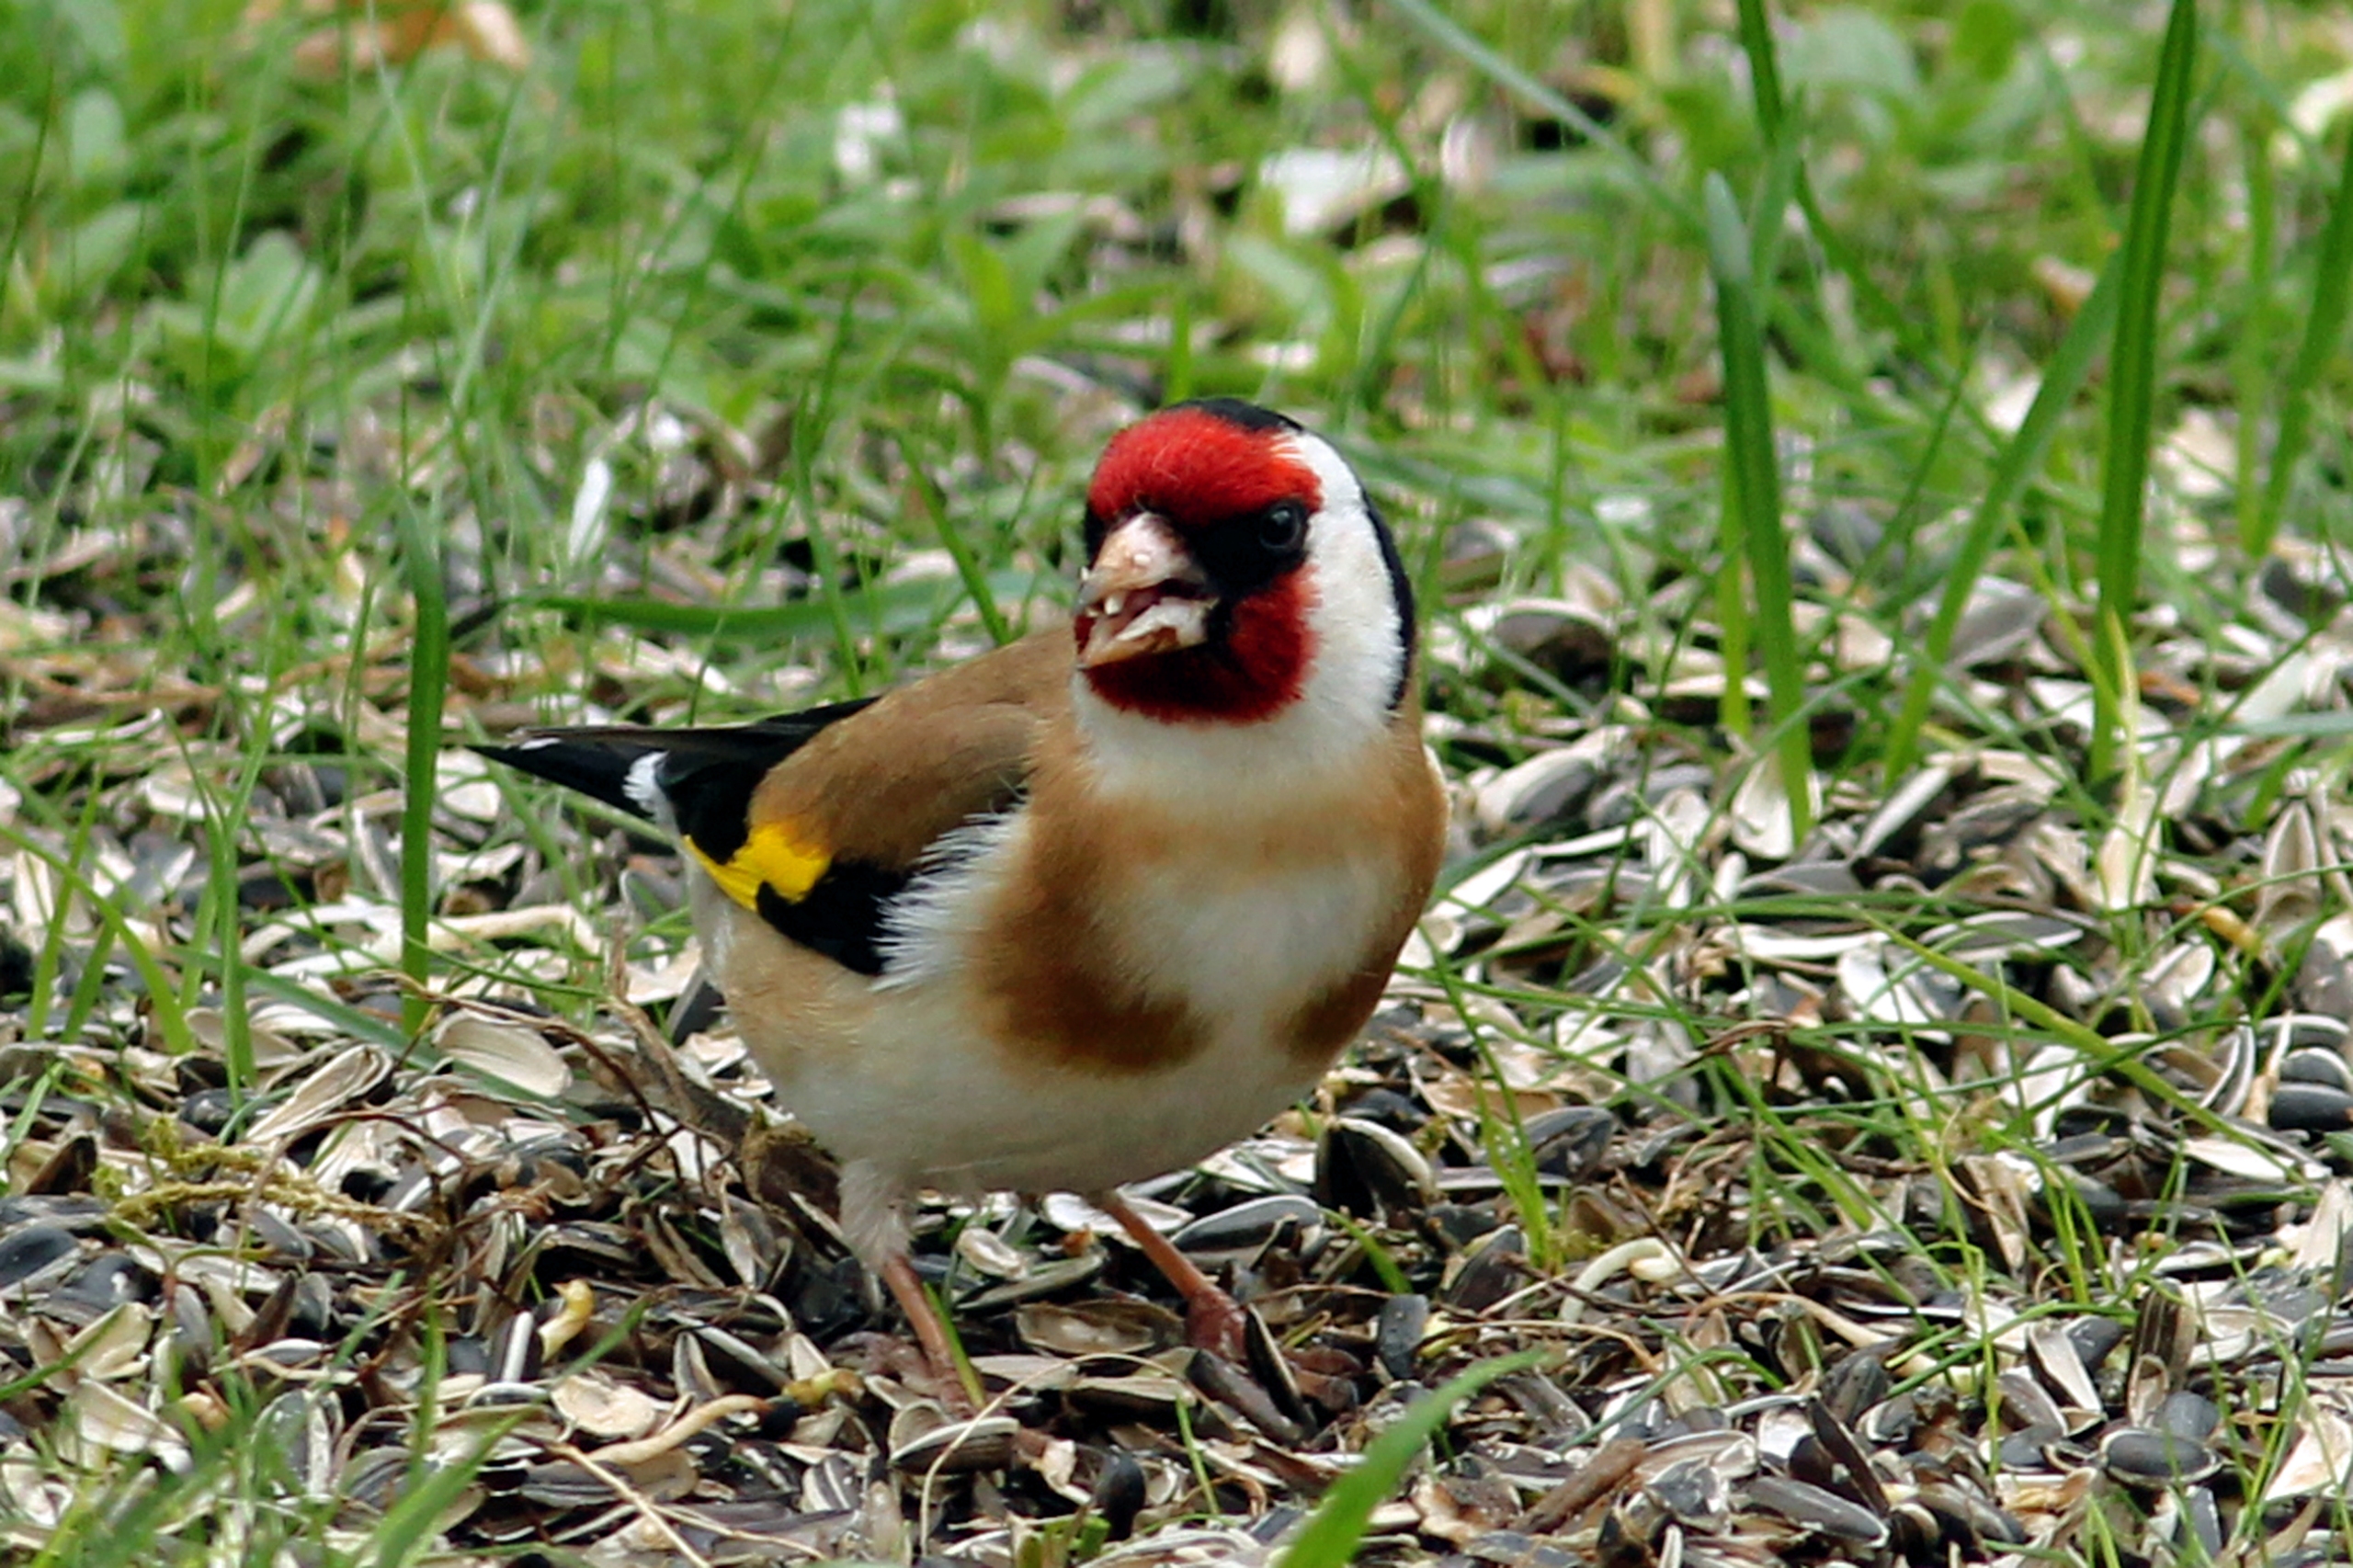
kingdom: Animalia
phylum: Chordata
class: Aves
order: Passeriformes
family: Fringillidae
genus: Carduelis
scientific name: Carduelis carduelis
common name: Stillits
